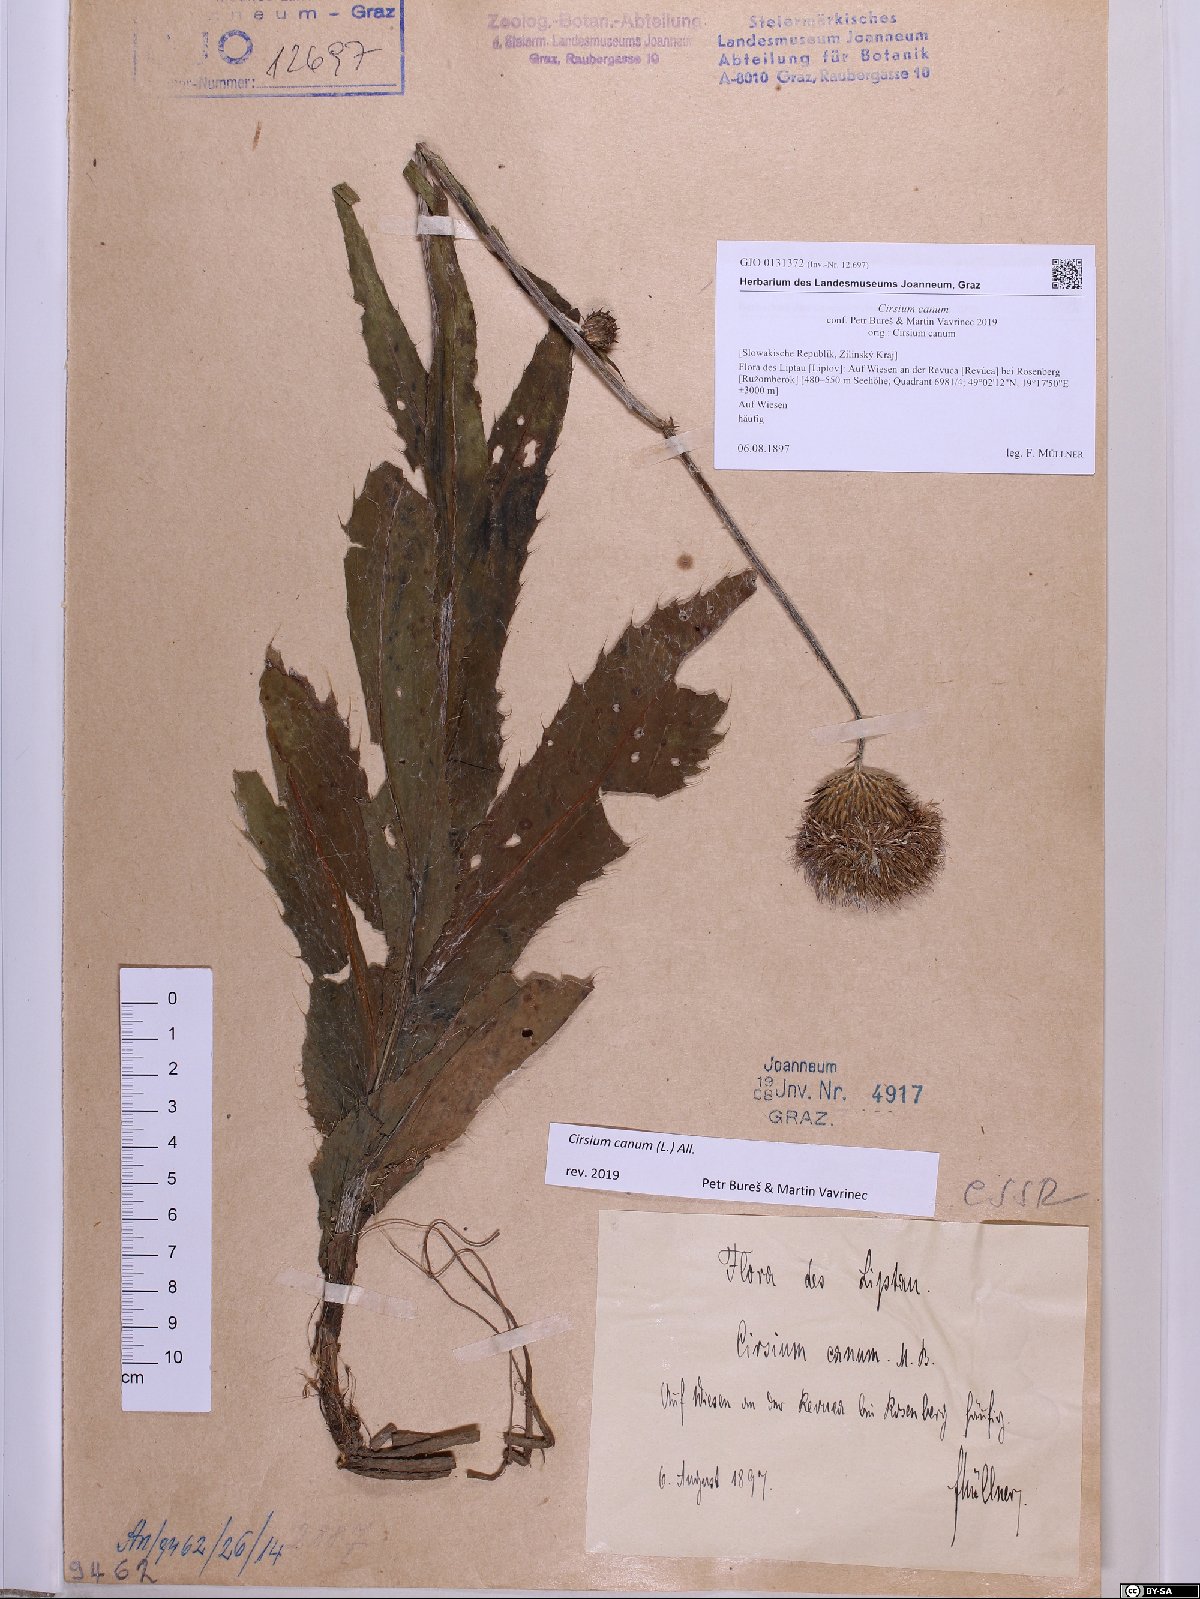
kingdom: Plantae
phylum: Tracheophyta
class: Magnoliopsida
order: Asterales
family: Asteraceae
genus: Cirsium
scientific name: Cirsium canum
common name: Queen anne's thistle
